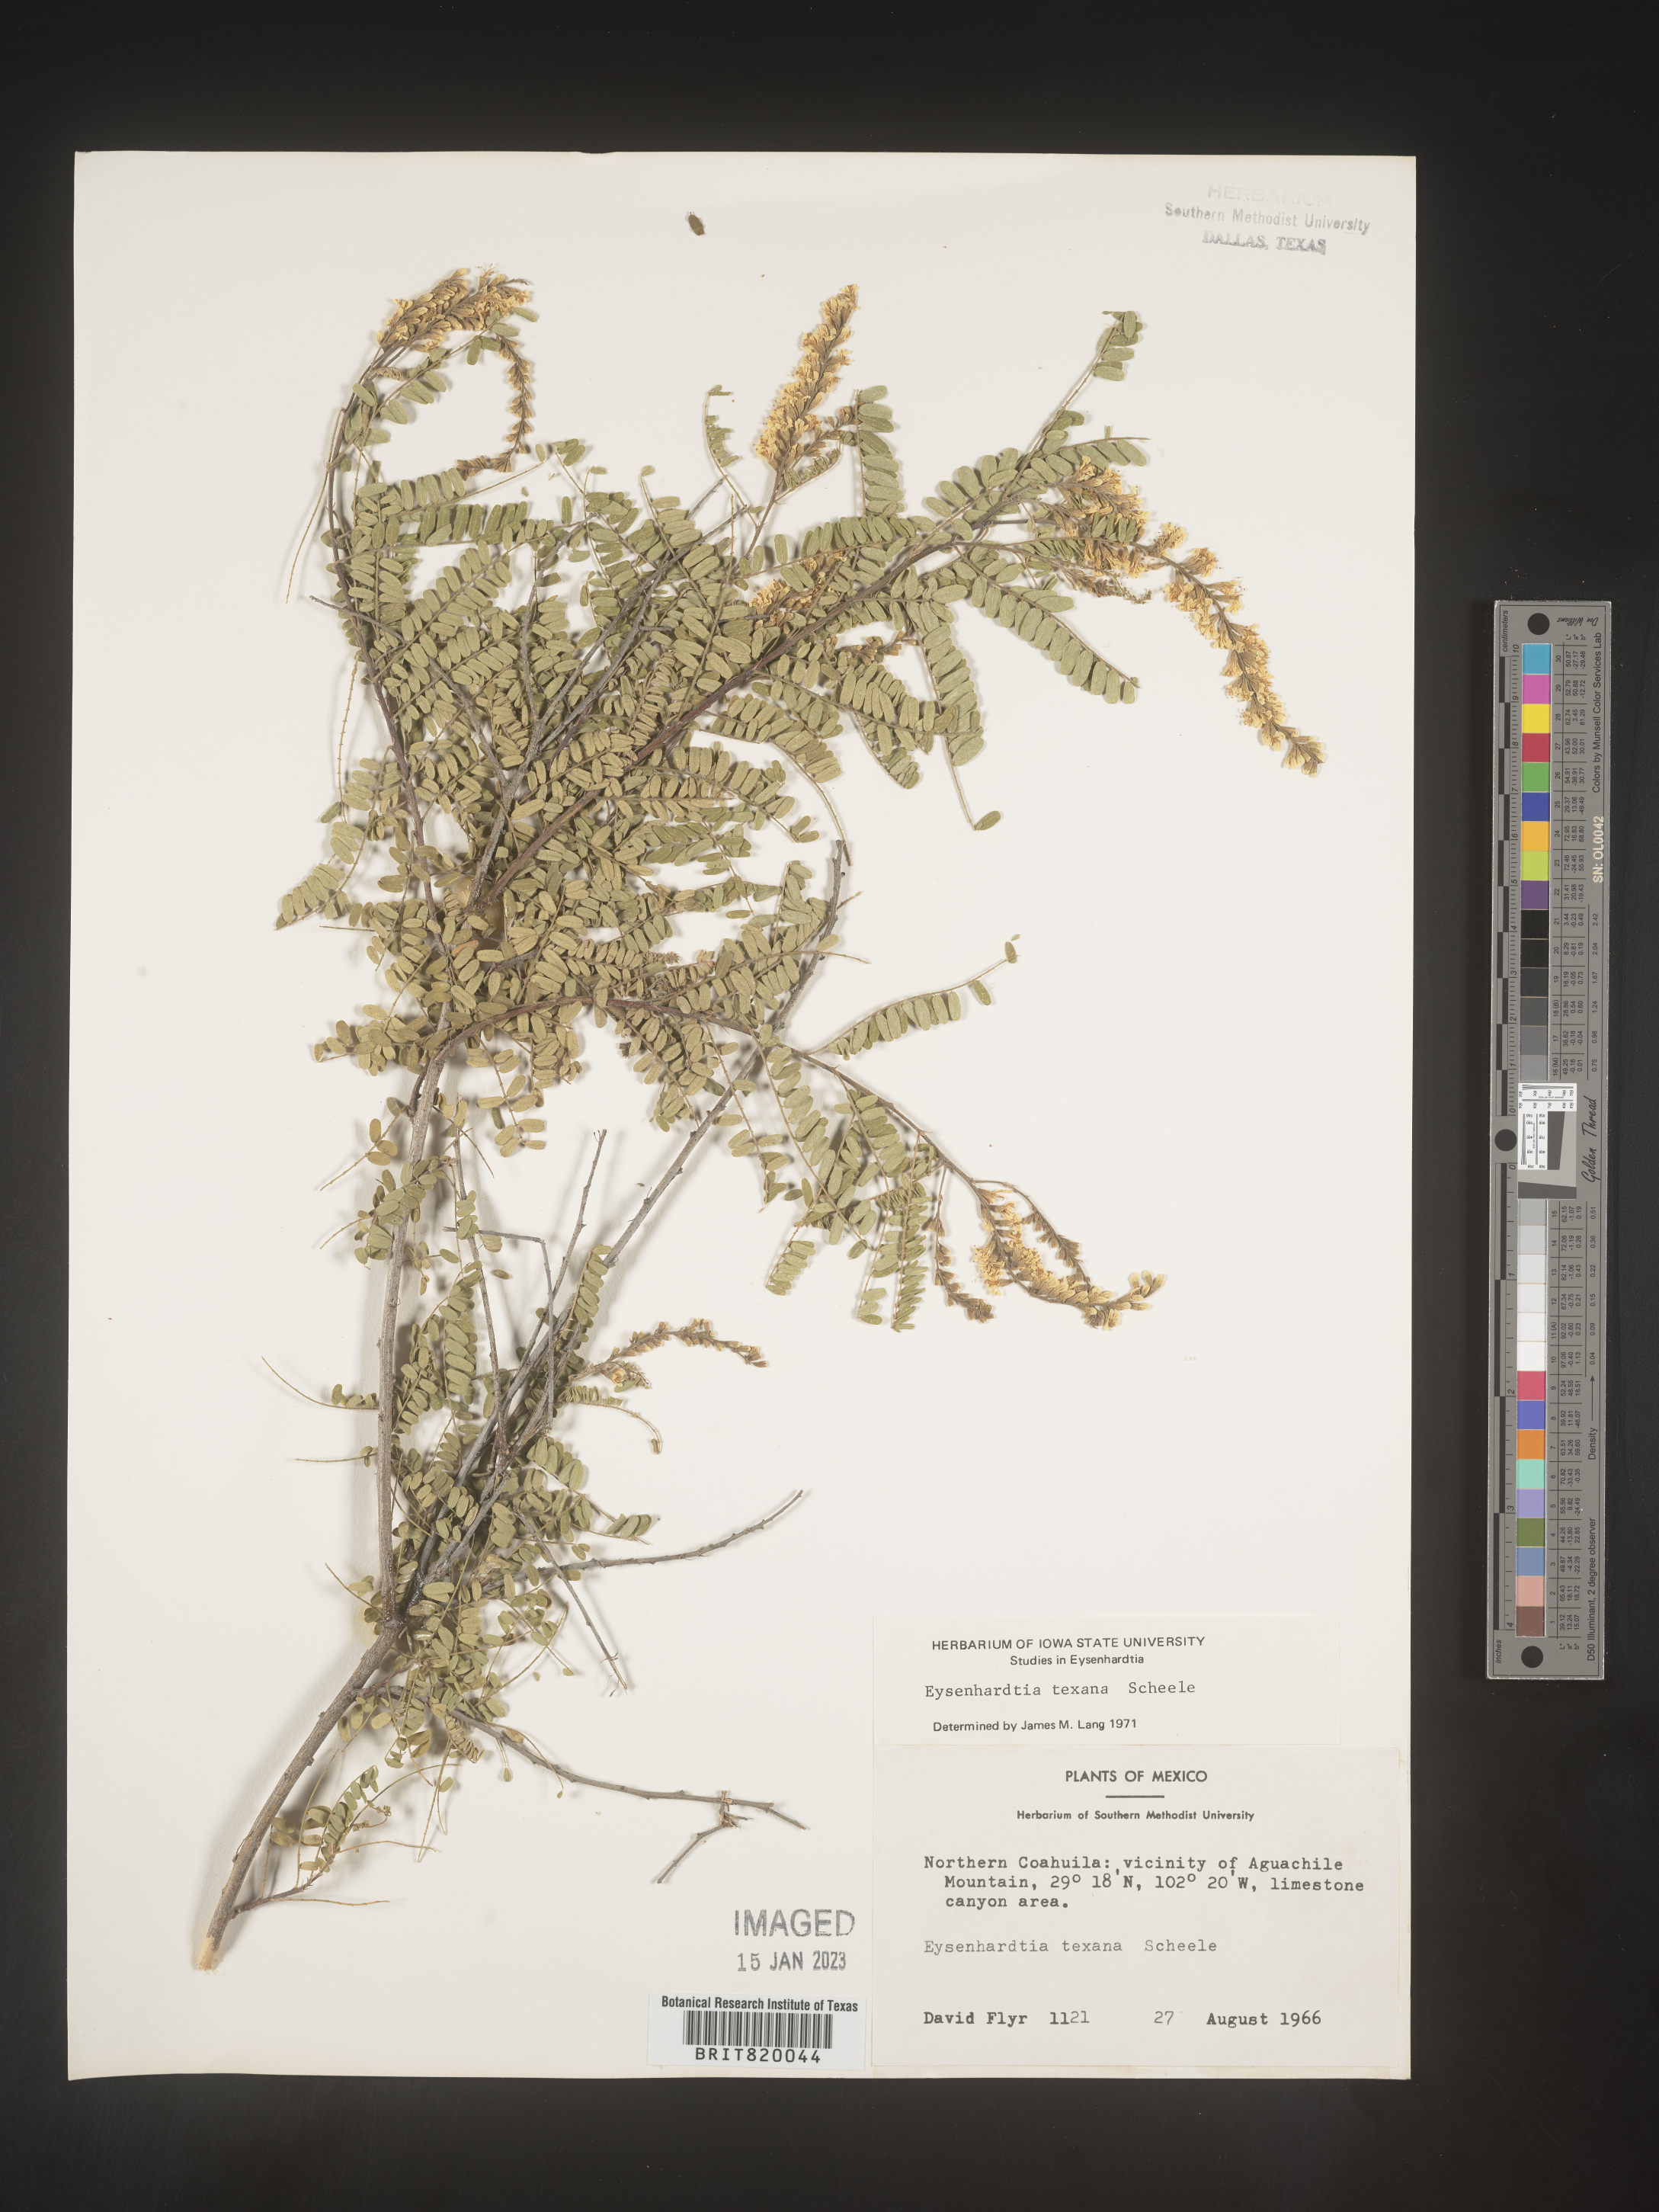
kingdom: Plantae
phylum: Tracheophyta
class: Magnoliopsida
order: Fabales
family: Fabaceae
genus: Eysenhardtia
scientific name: Eysenhardtia
